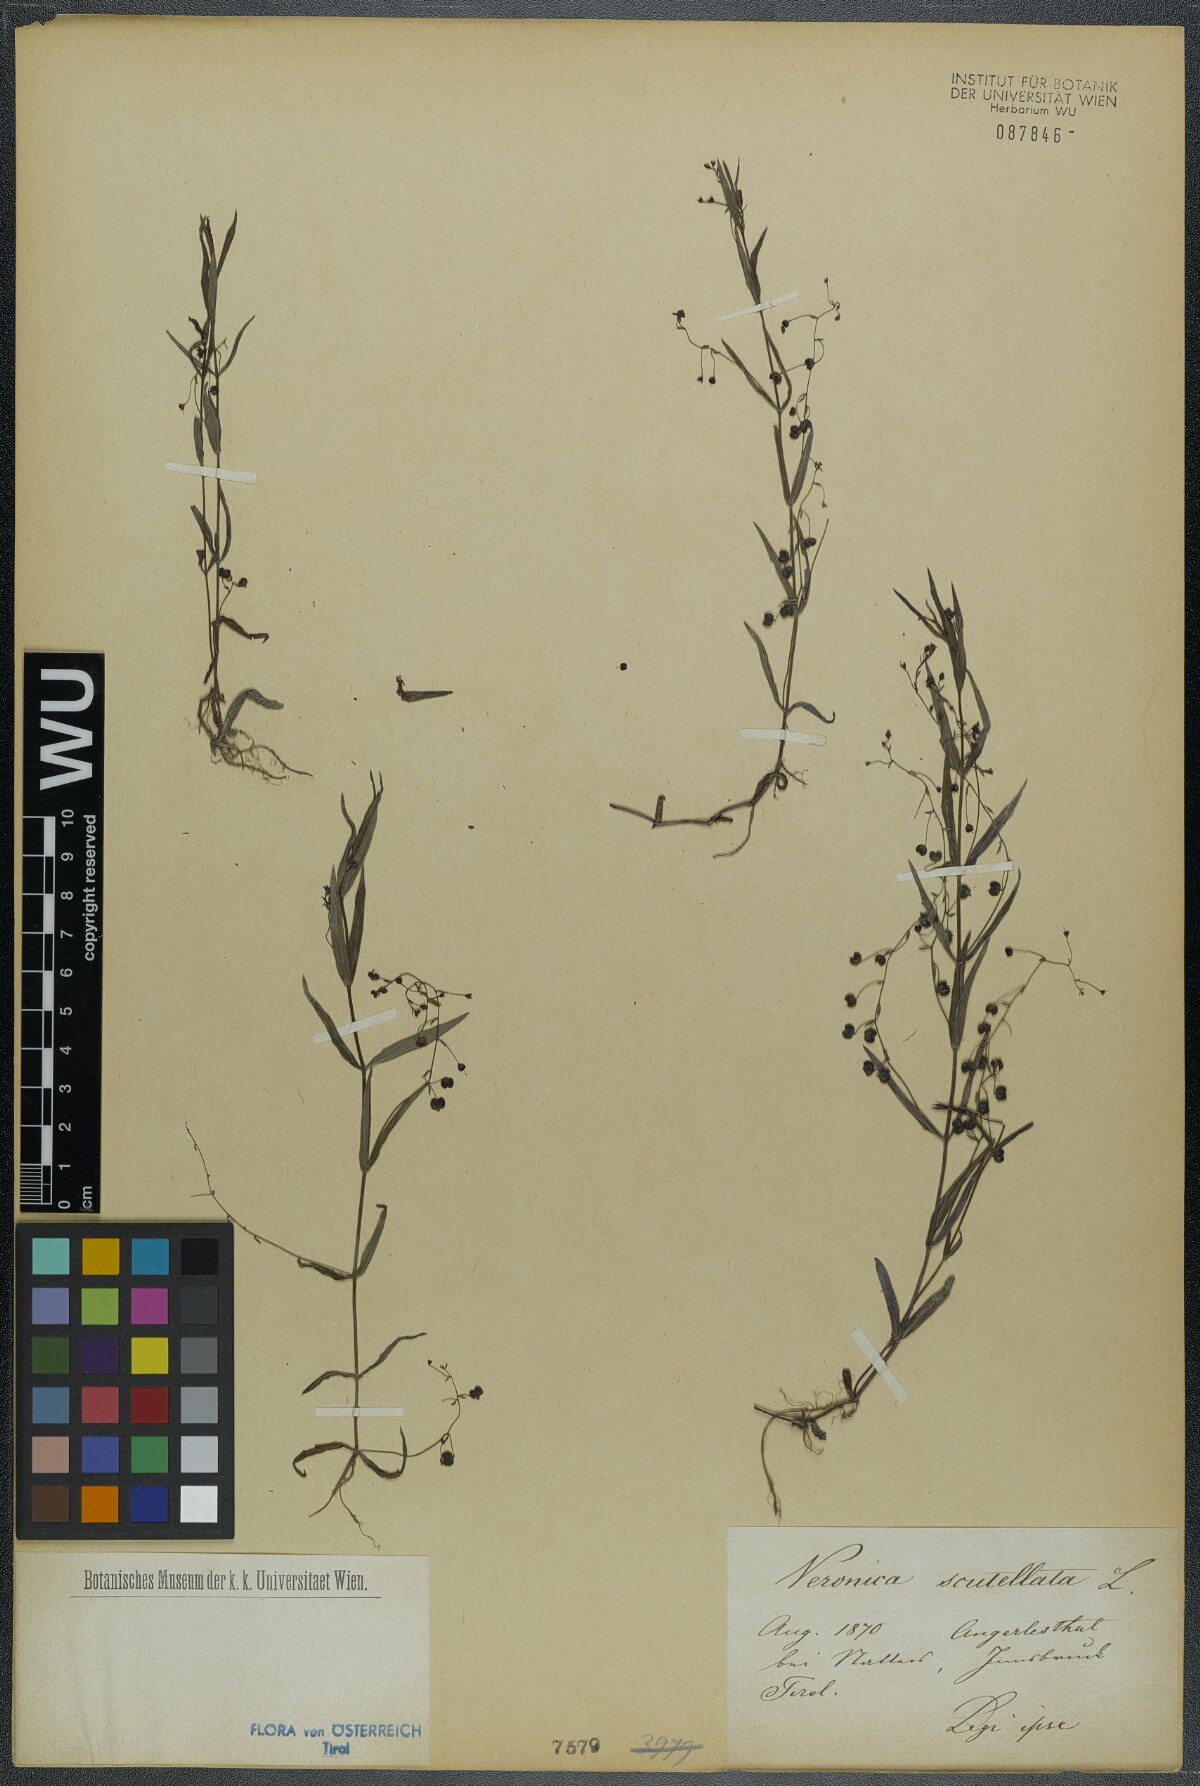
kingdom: Plantae
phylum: Tracheophyta
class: Magnoliopsida
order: Lamiales
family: Plantaginaceae
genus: Veronica
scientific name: Veronica scutellata
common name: Marsh speedwell
